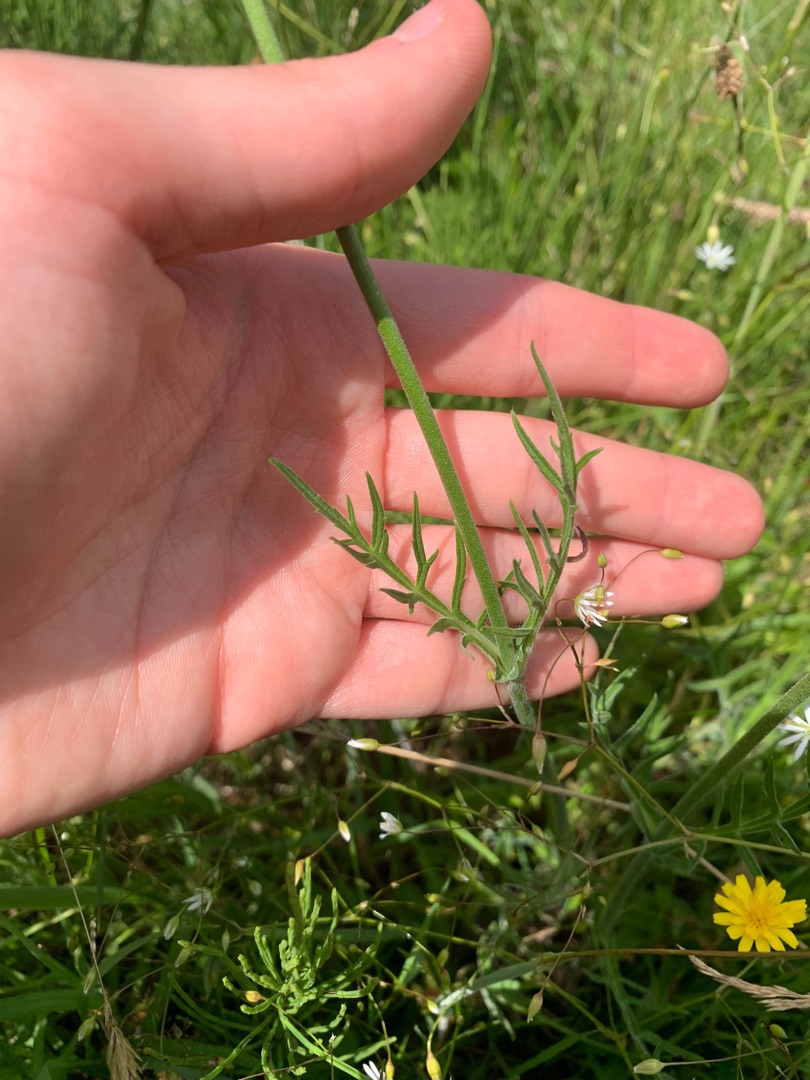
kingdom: Plantae
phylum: Tracheophyta
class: Magnoliopsida
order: Dipsacales
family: Caprifoliaceae
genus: Knautia
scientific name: Knautia arvensis
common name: Blåhat
